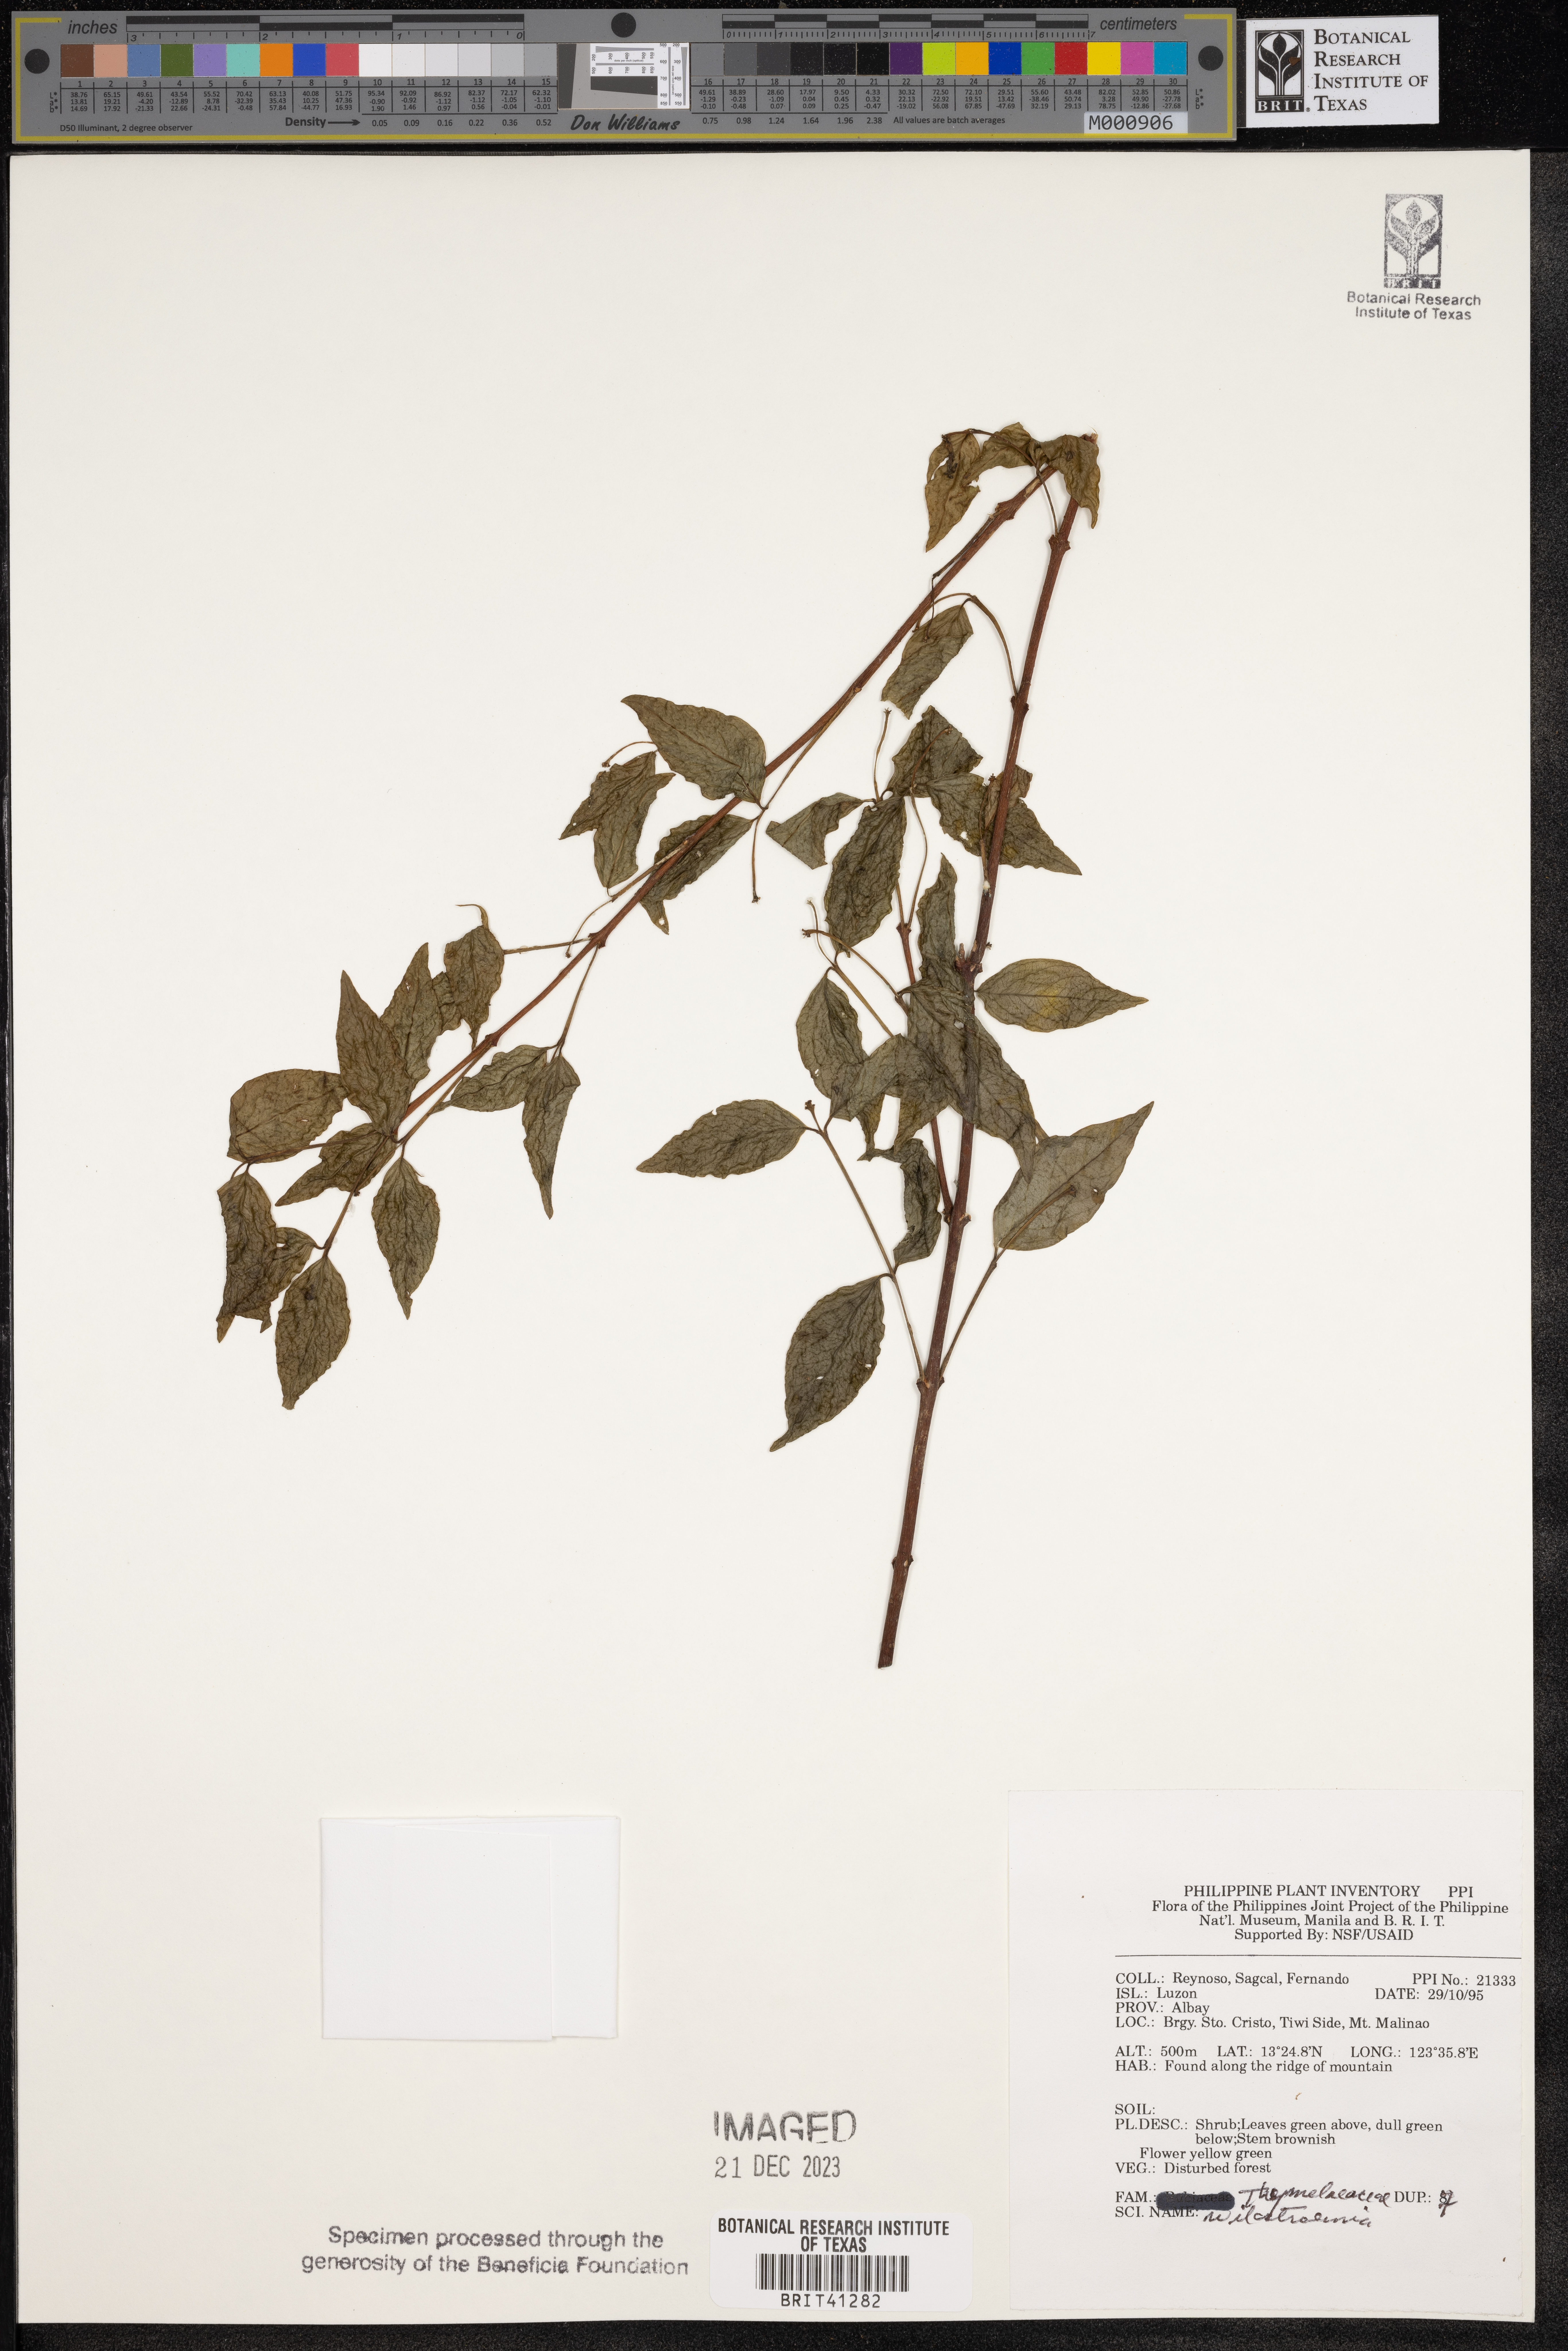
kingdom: Plantae
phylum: Tracheophyta
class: Magnoliopsida
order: Malvales
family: Thymelaeaceae
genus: Wikstroemia
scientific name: Wikstroemia
